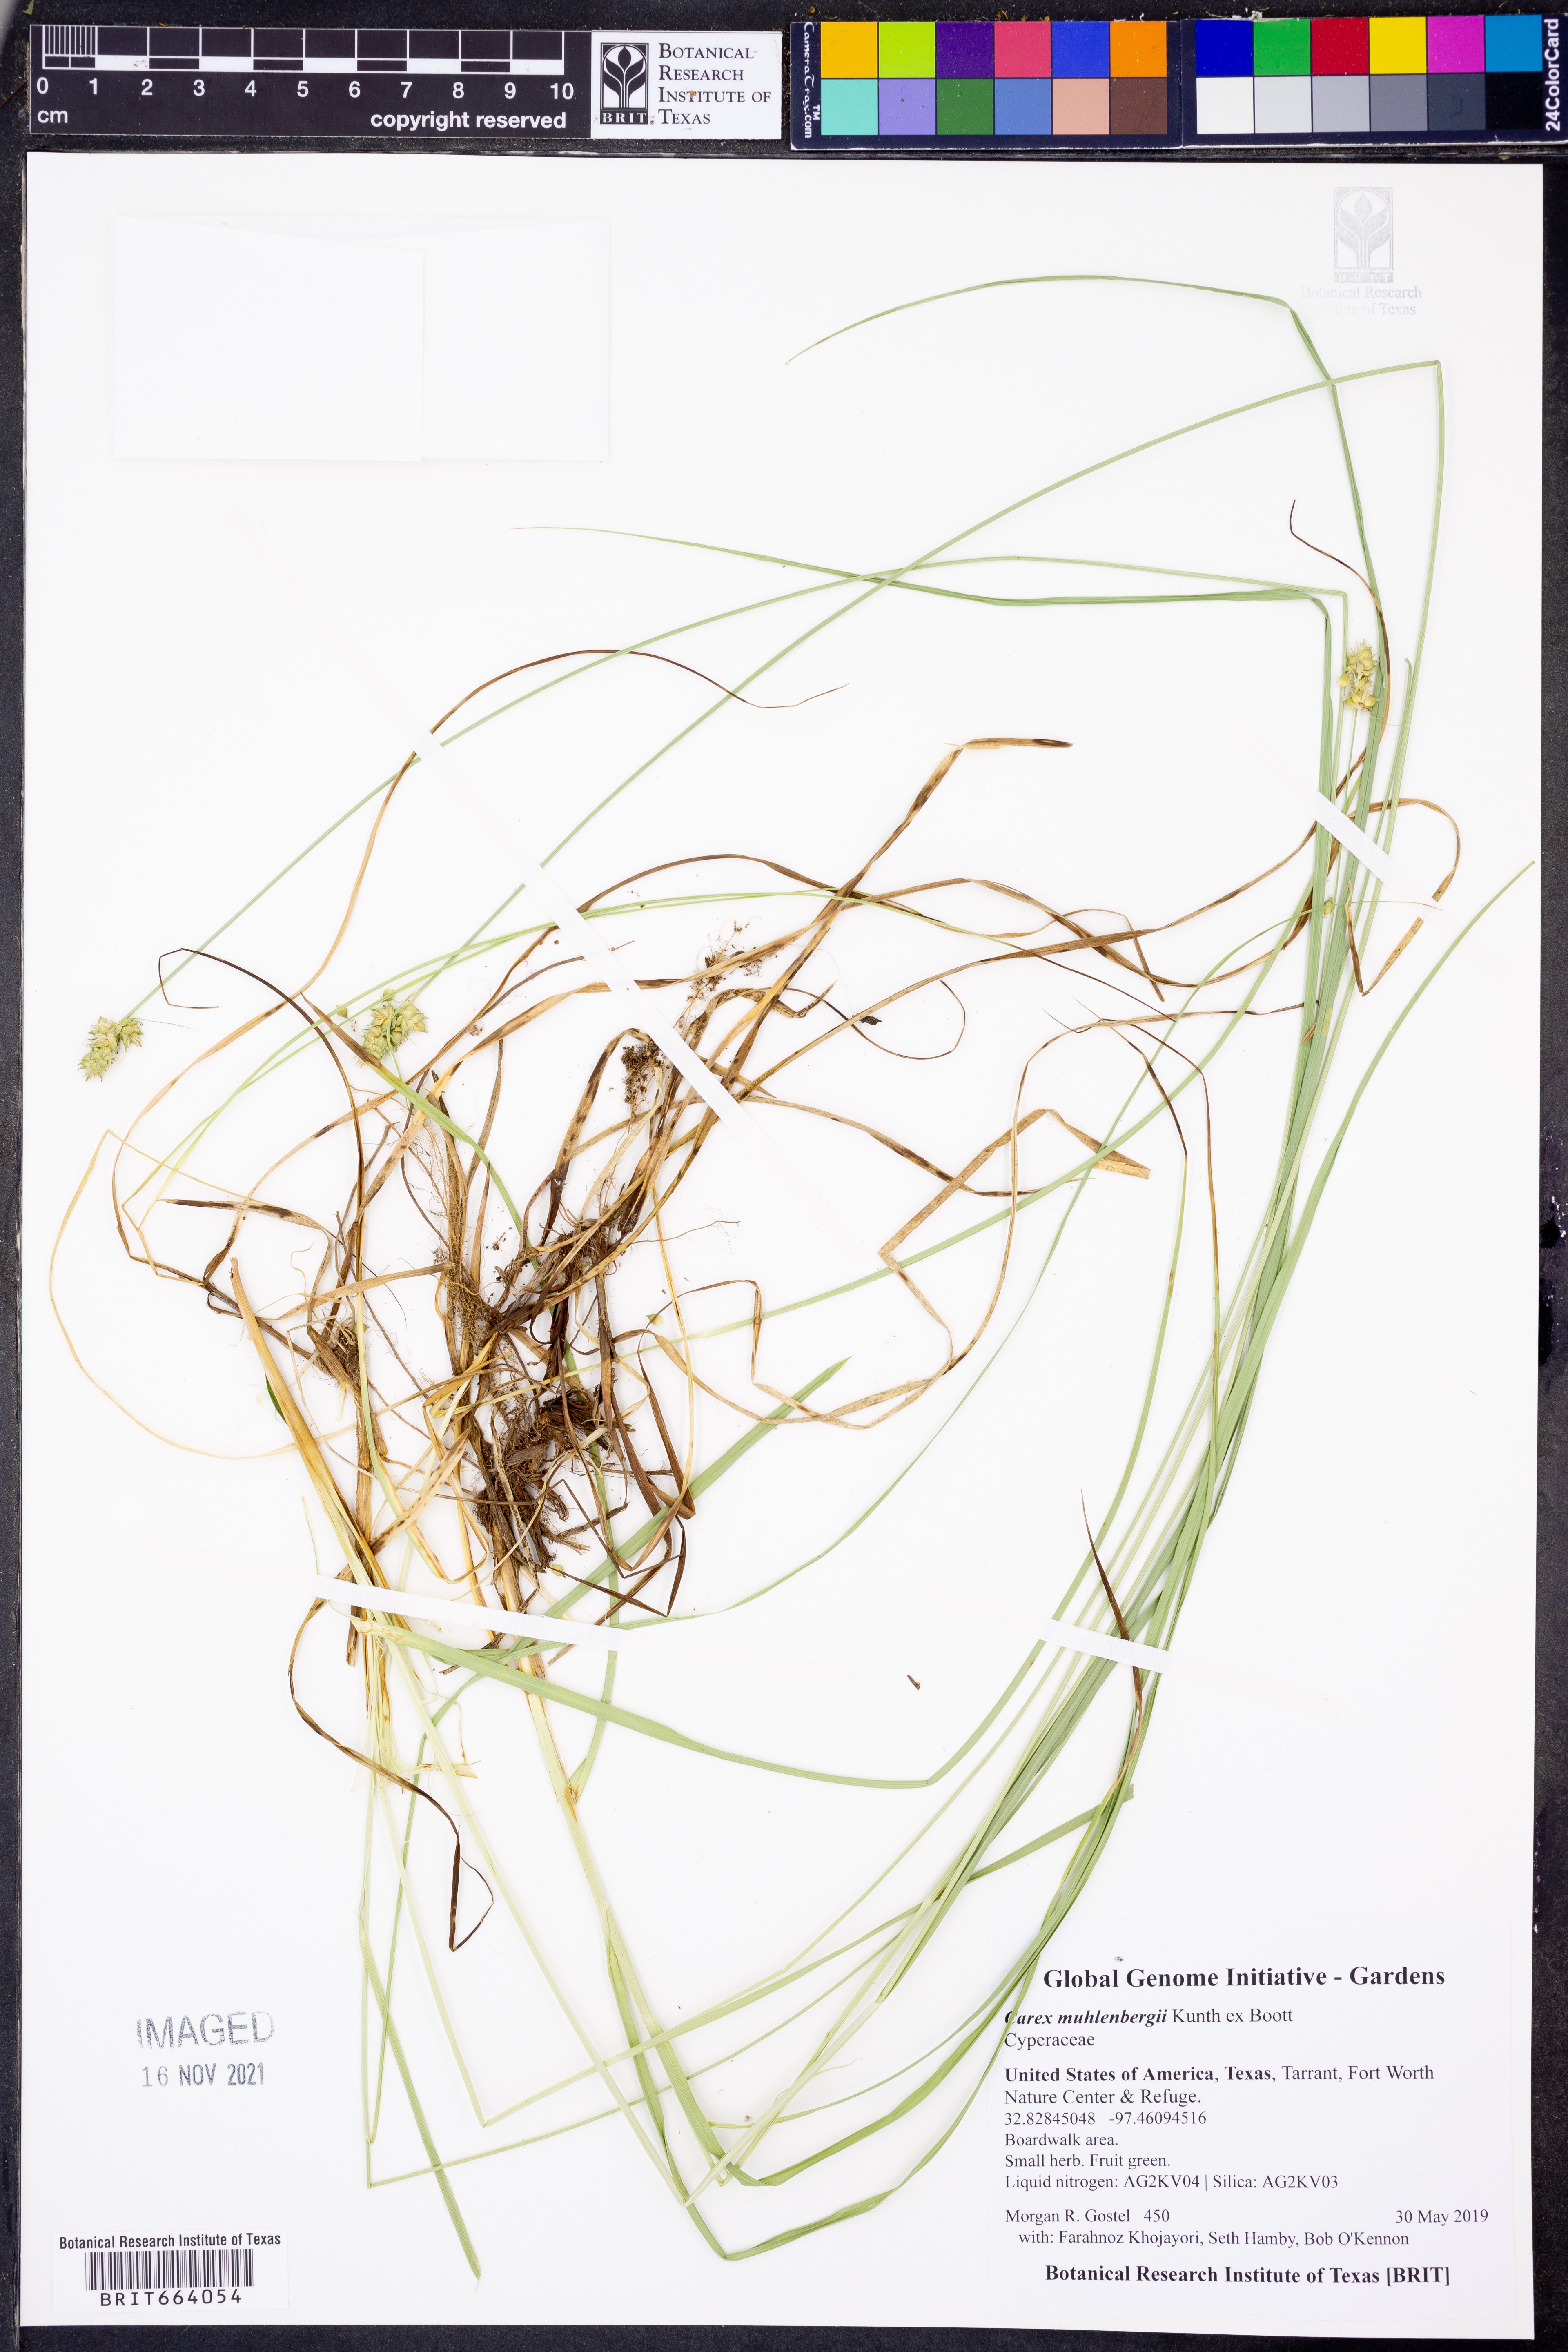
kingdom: Plantae
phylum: Tracheophyta
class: Liliopsida
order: Poales
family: Cyperaceae
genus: Carex
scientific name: Carex vulpinoidea
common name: American fox-sedge
